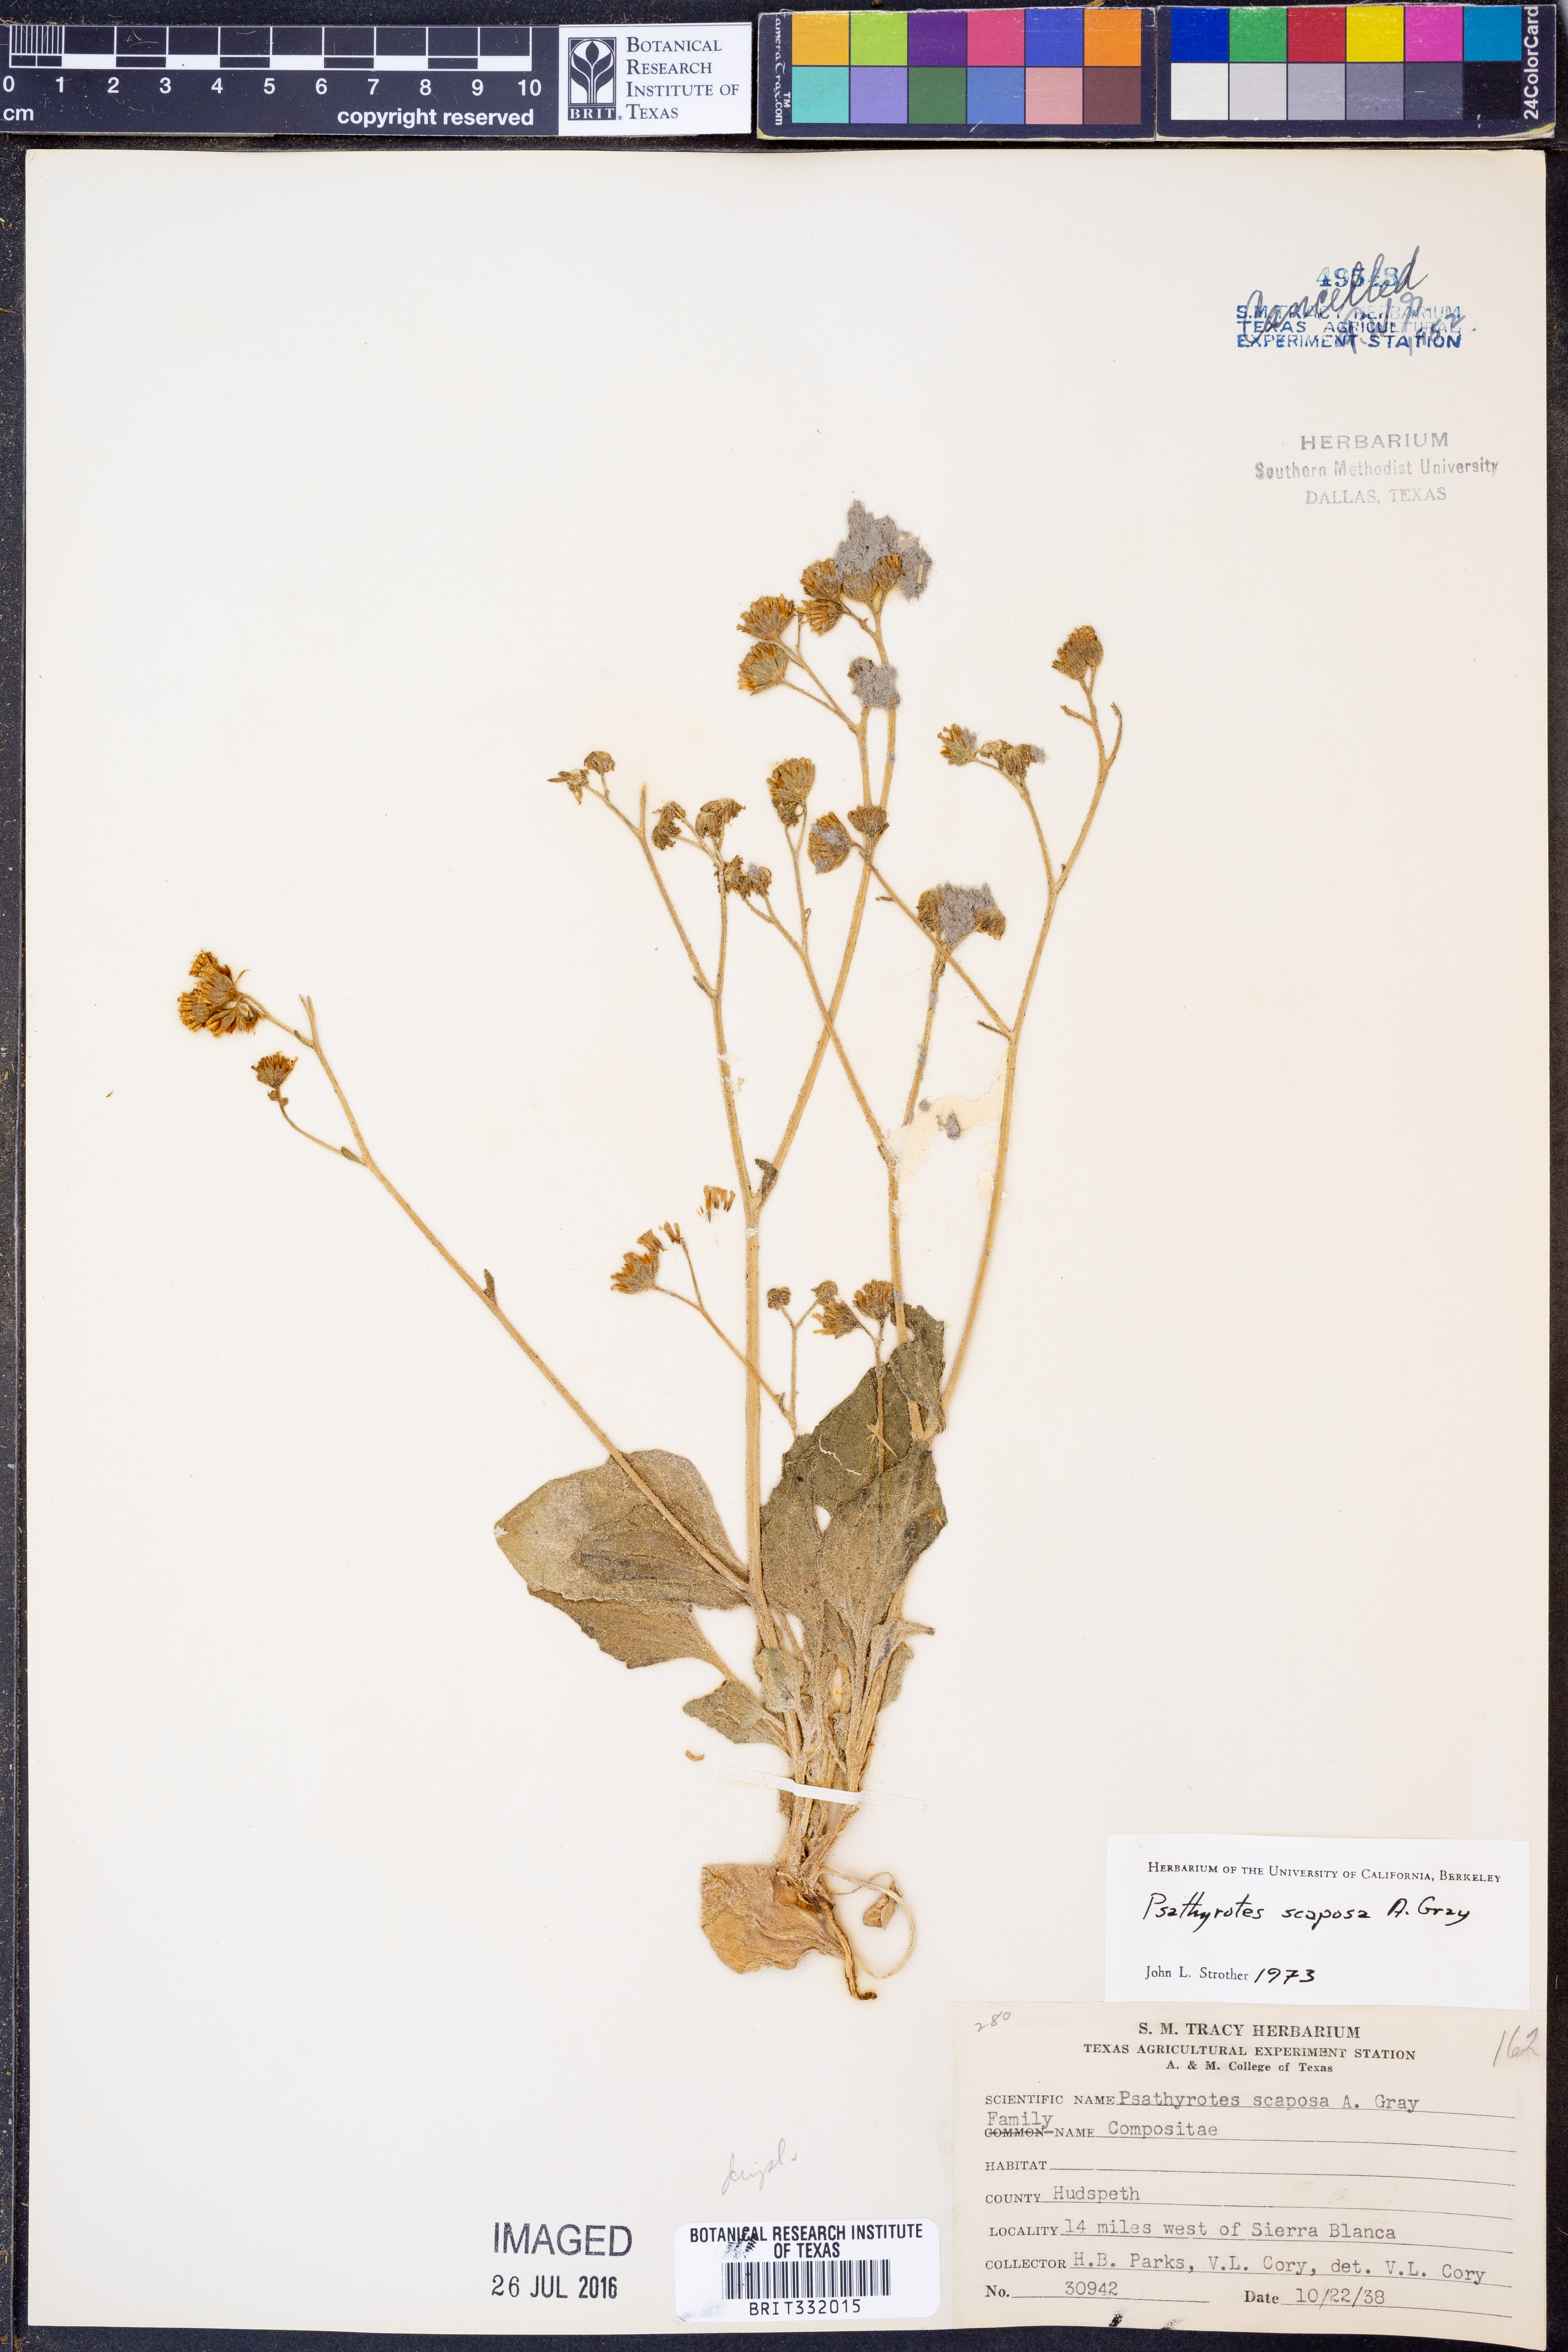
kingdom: Plantae
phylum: Tracheophyta
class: Magnoliopsida
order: Asterales
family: Asteraceae
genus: Psathyrotopsis
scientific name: Psathyrotopsis scaposa
